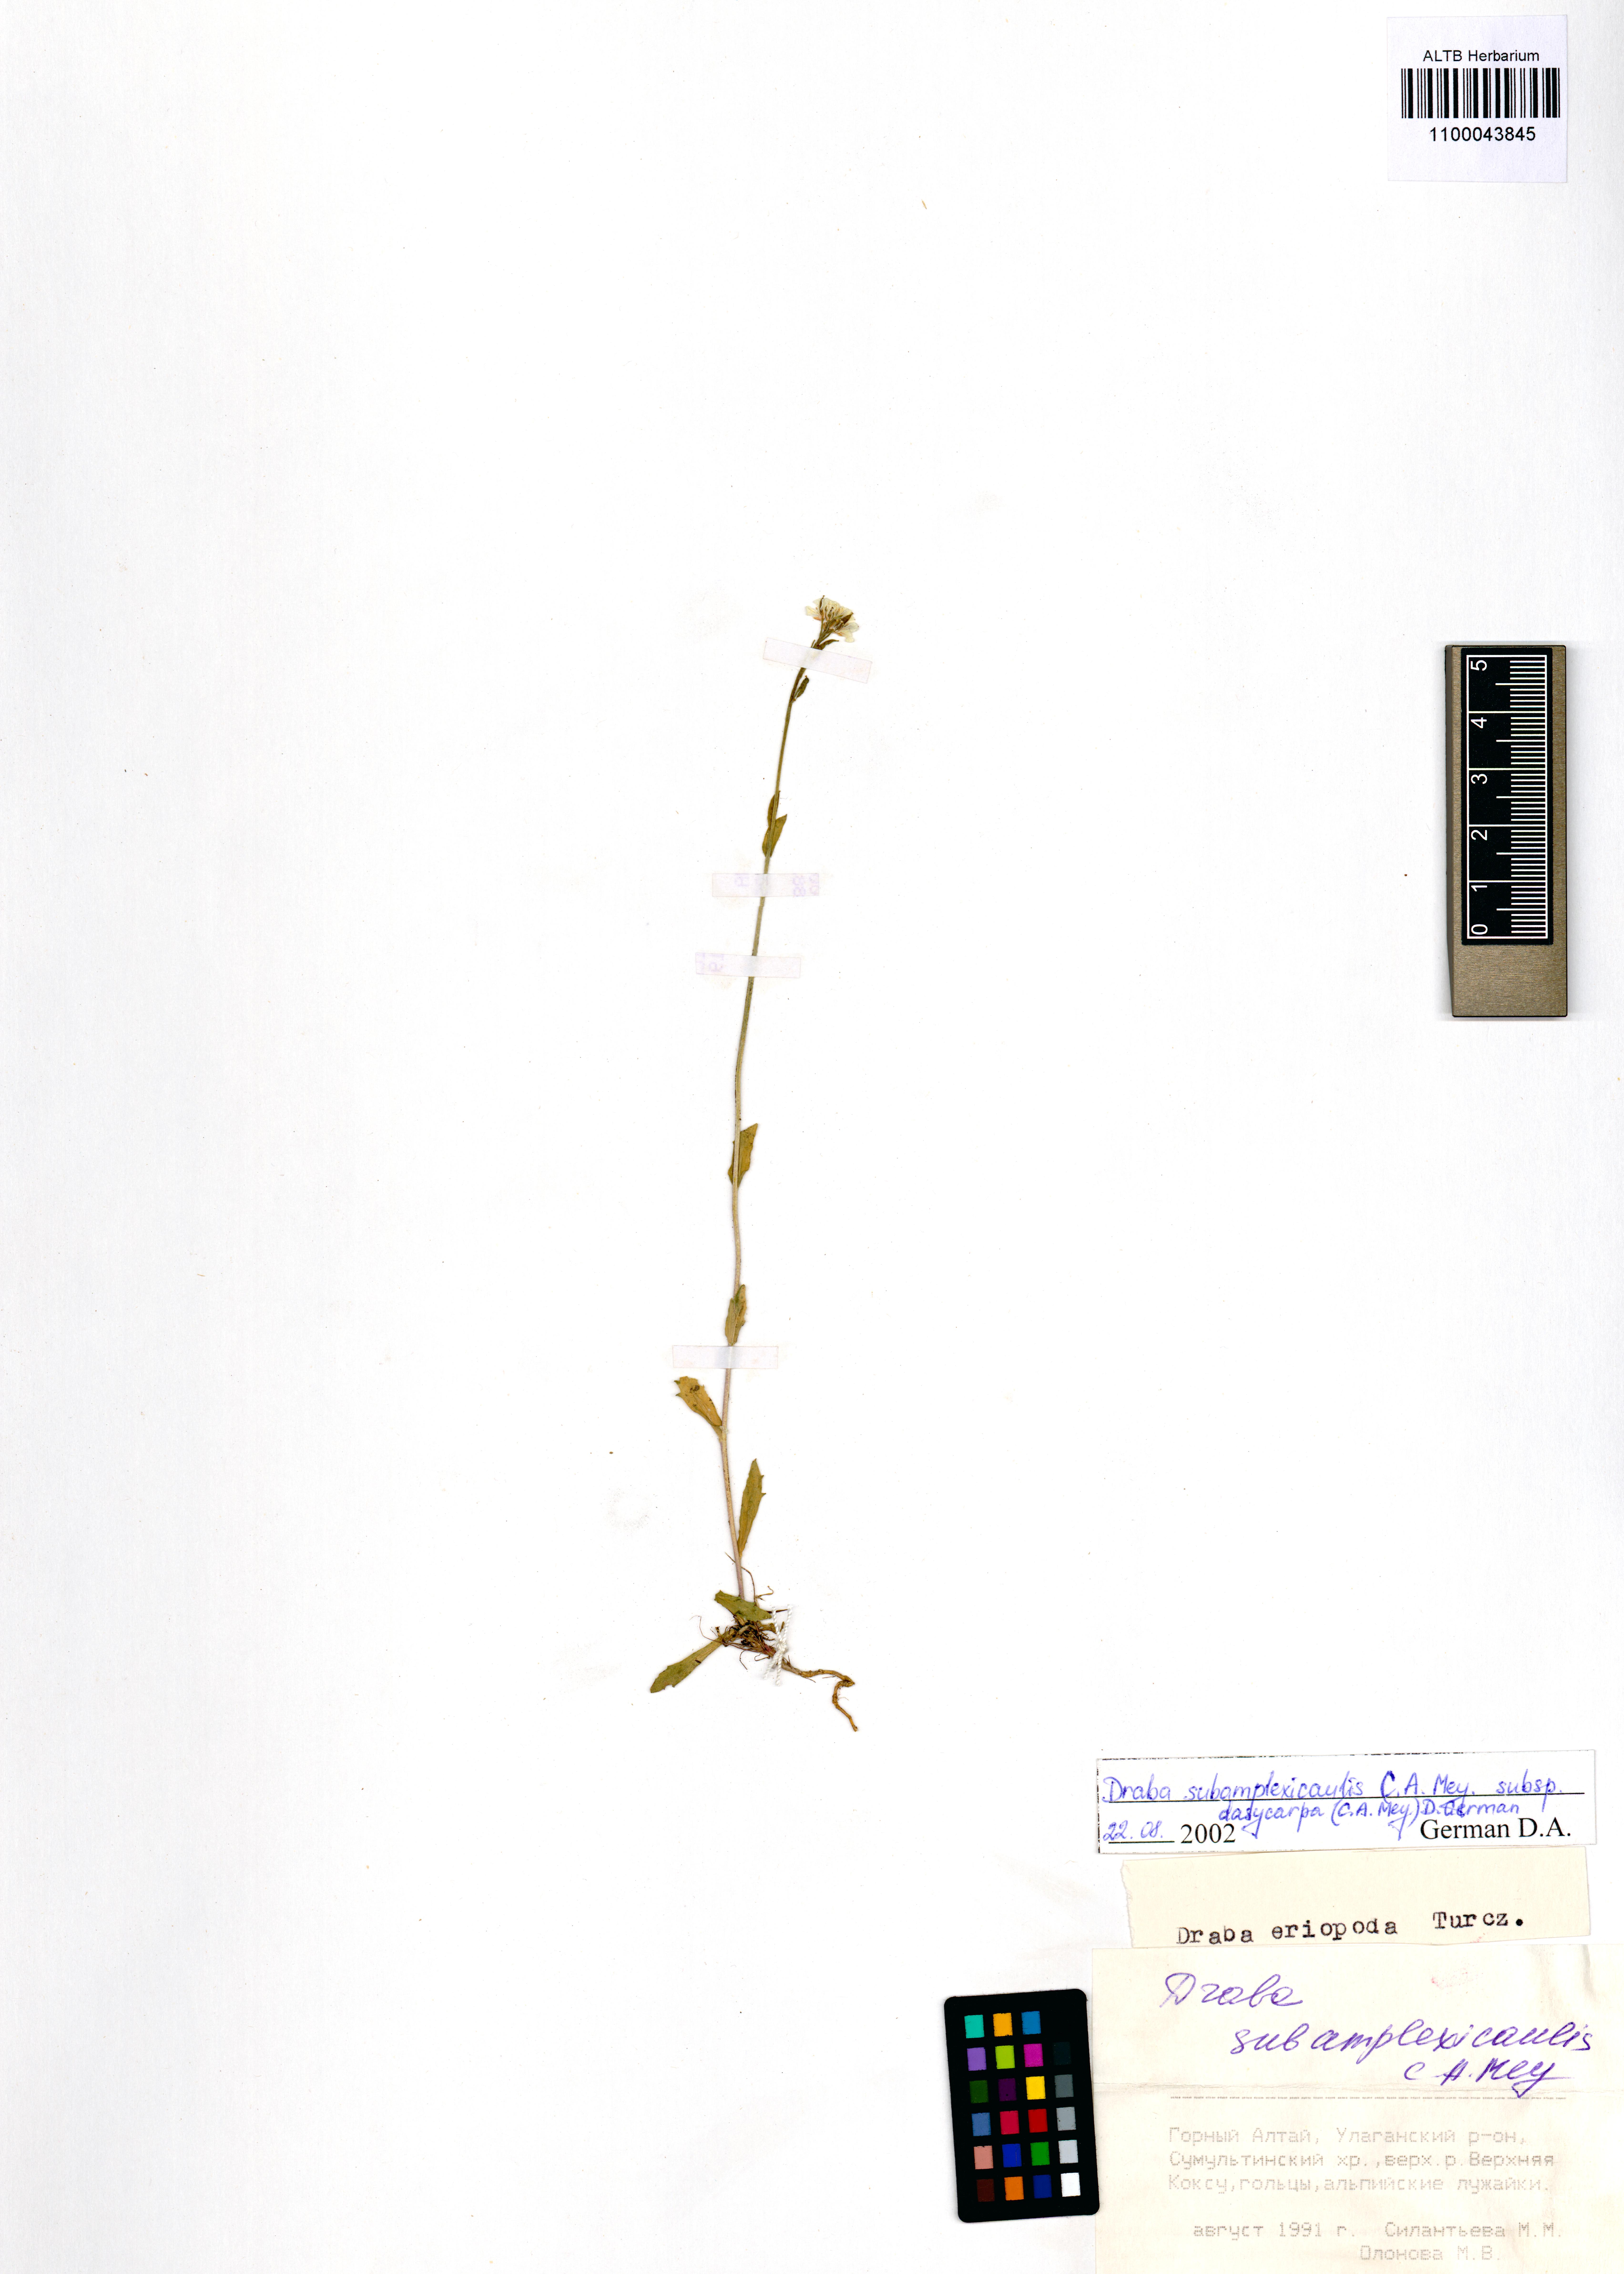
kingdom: Plantae
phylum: Tracheophyta
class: Magnoliopsida
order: Brassicales
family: Brassicaceae
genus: Draba
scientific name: Draba subamplexicaulis
